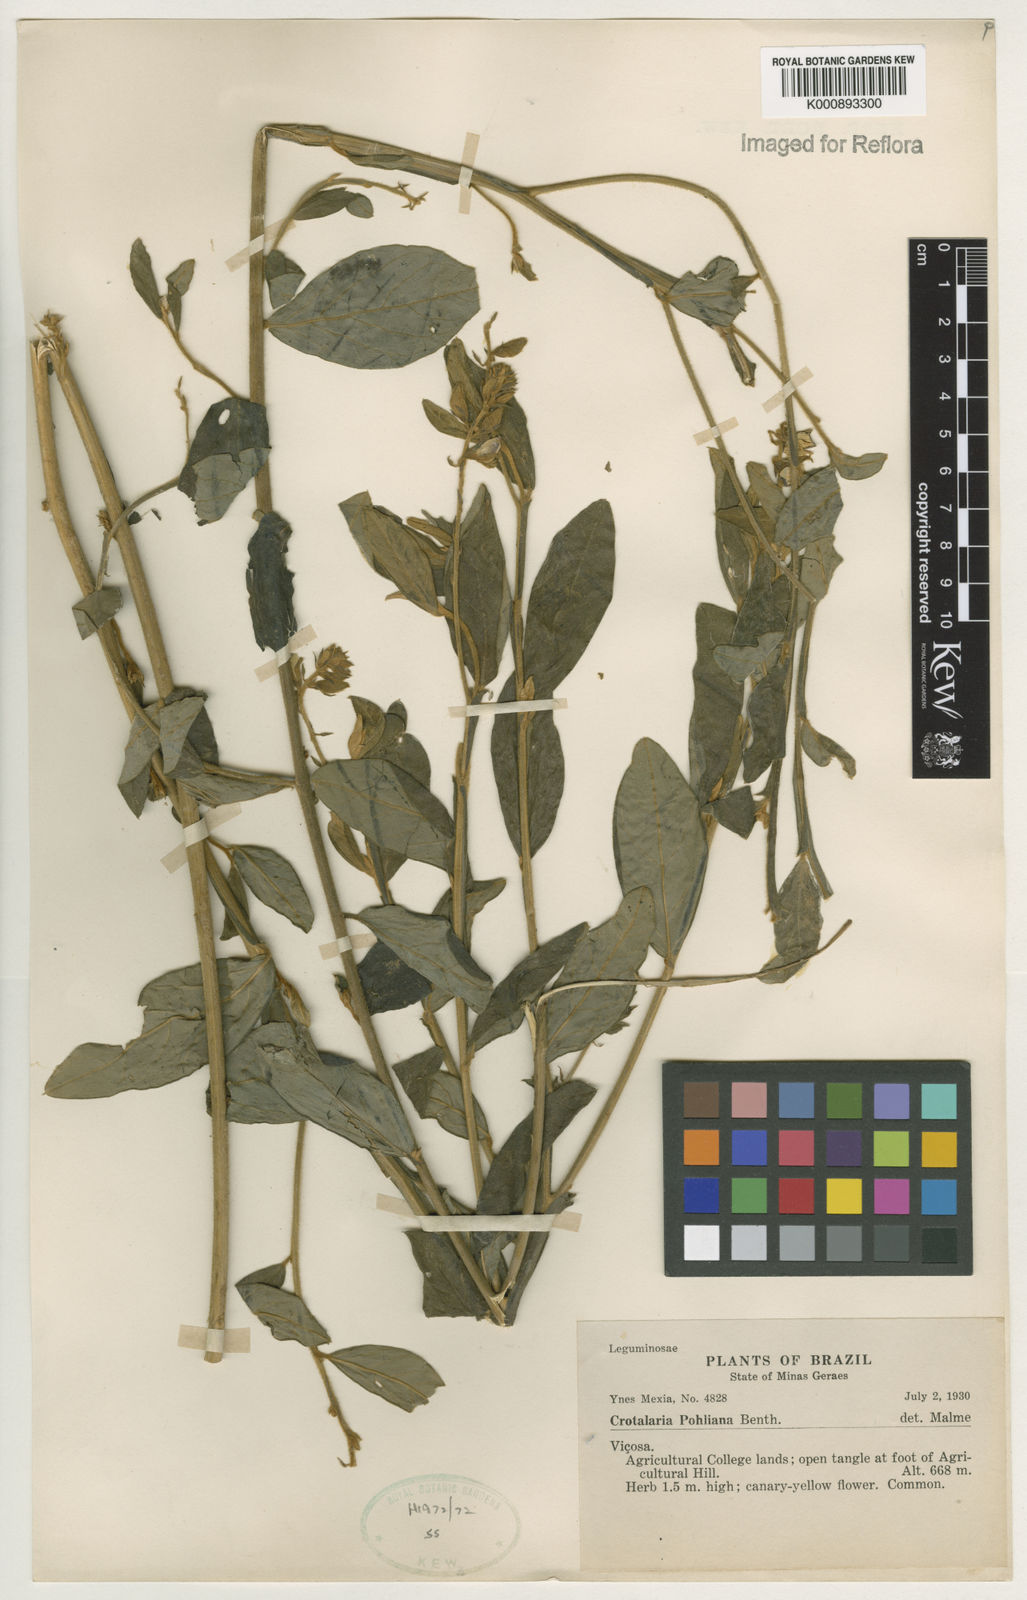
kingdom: Plantae
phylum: Tracheophyta
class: Magnoliopsida
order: Fabales
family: Fabaceae
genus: Crotalaria
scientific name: Crotalaria breviflora
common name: Short-flower crotalaria
